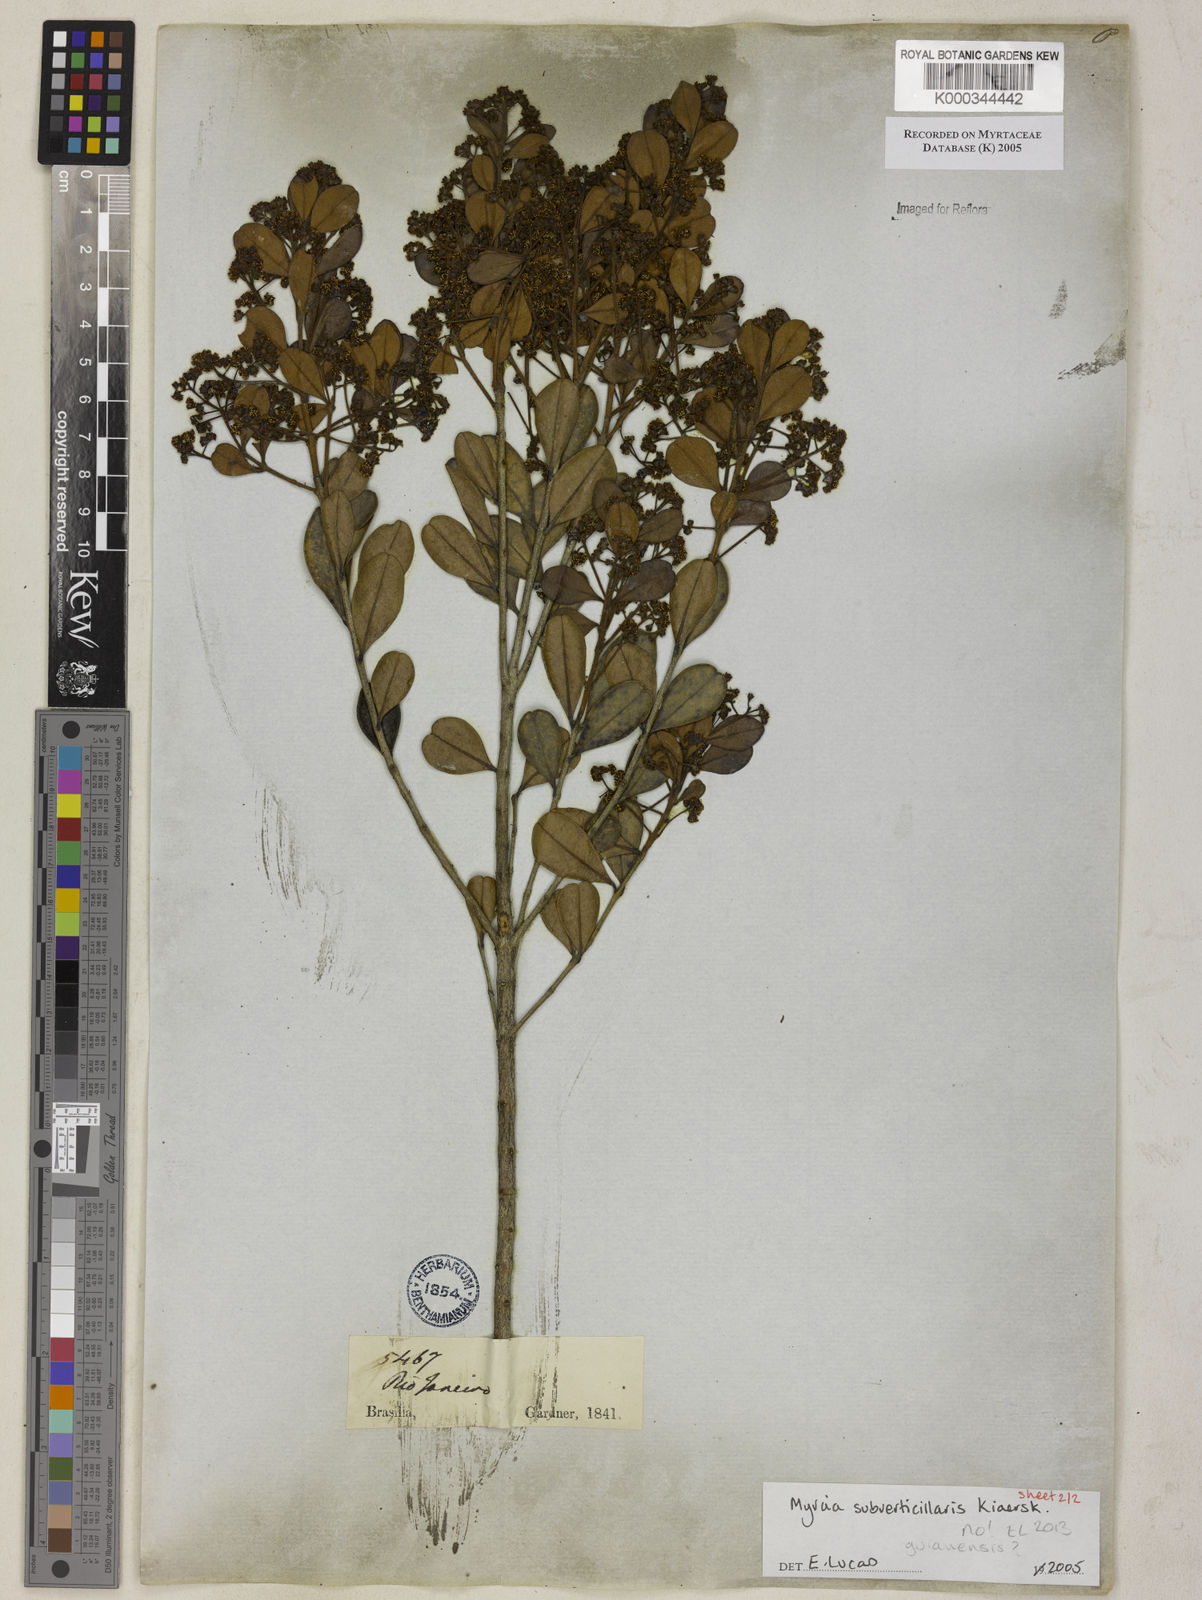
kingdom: Plantae
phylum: Tracheophyta
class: Magnoliopsida
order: Myrtales
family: Myrtaceae
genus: Myrcia
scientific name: Myrcia
